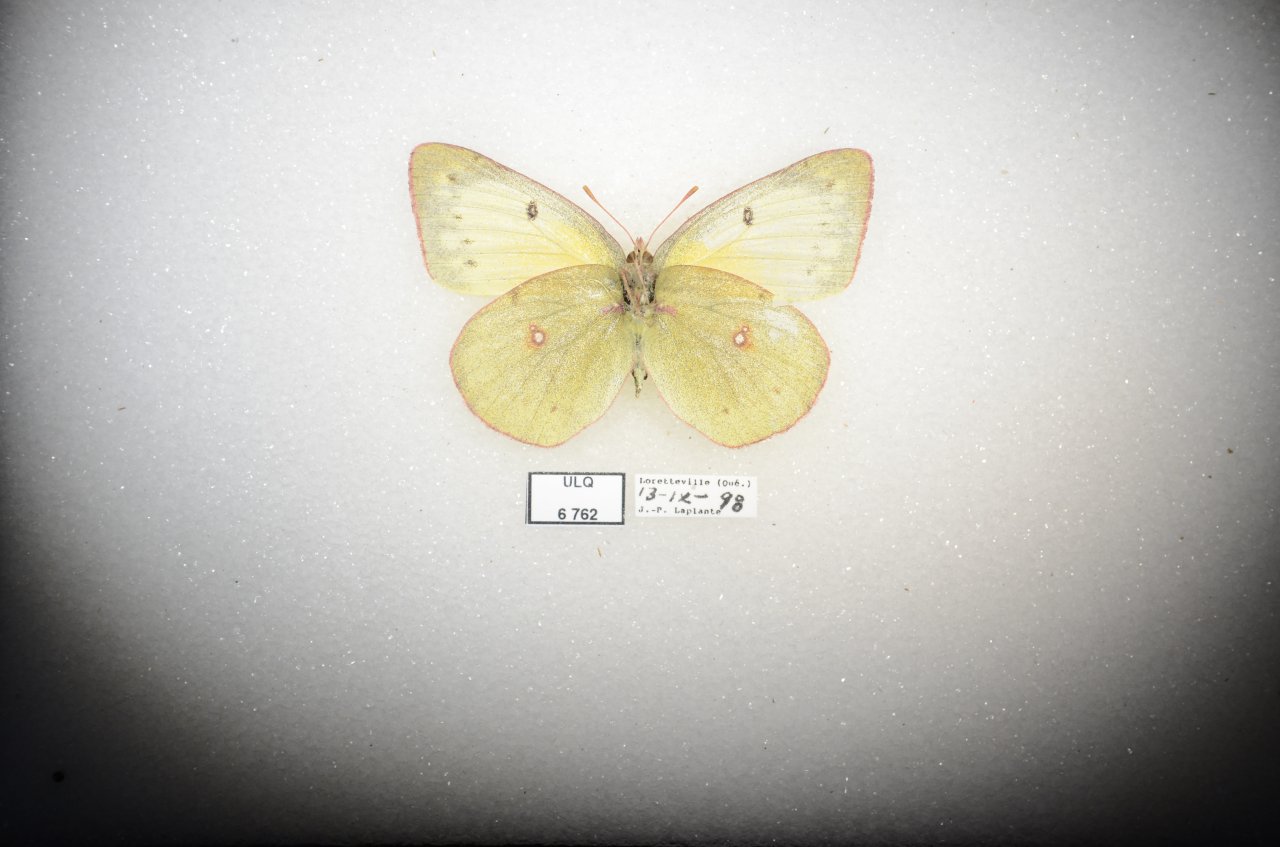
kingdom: Animalia
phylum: Arthropoda
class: Insecta
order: Lepidoptera
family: Pieridae
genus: Colias
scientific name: Colias philodice
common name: Clouded Sulphur
